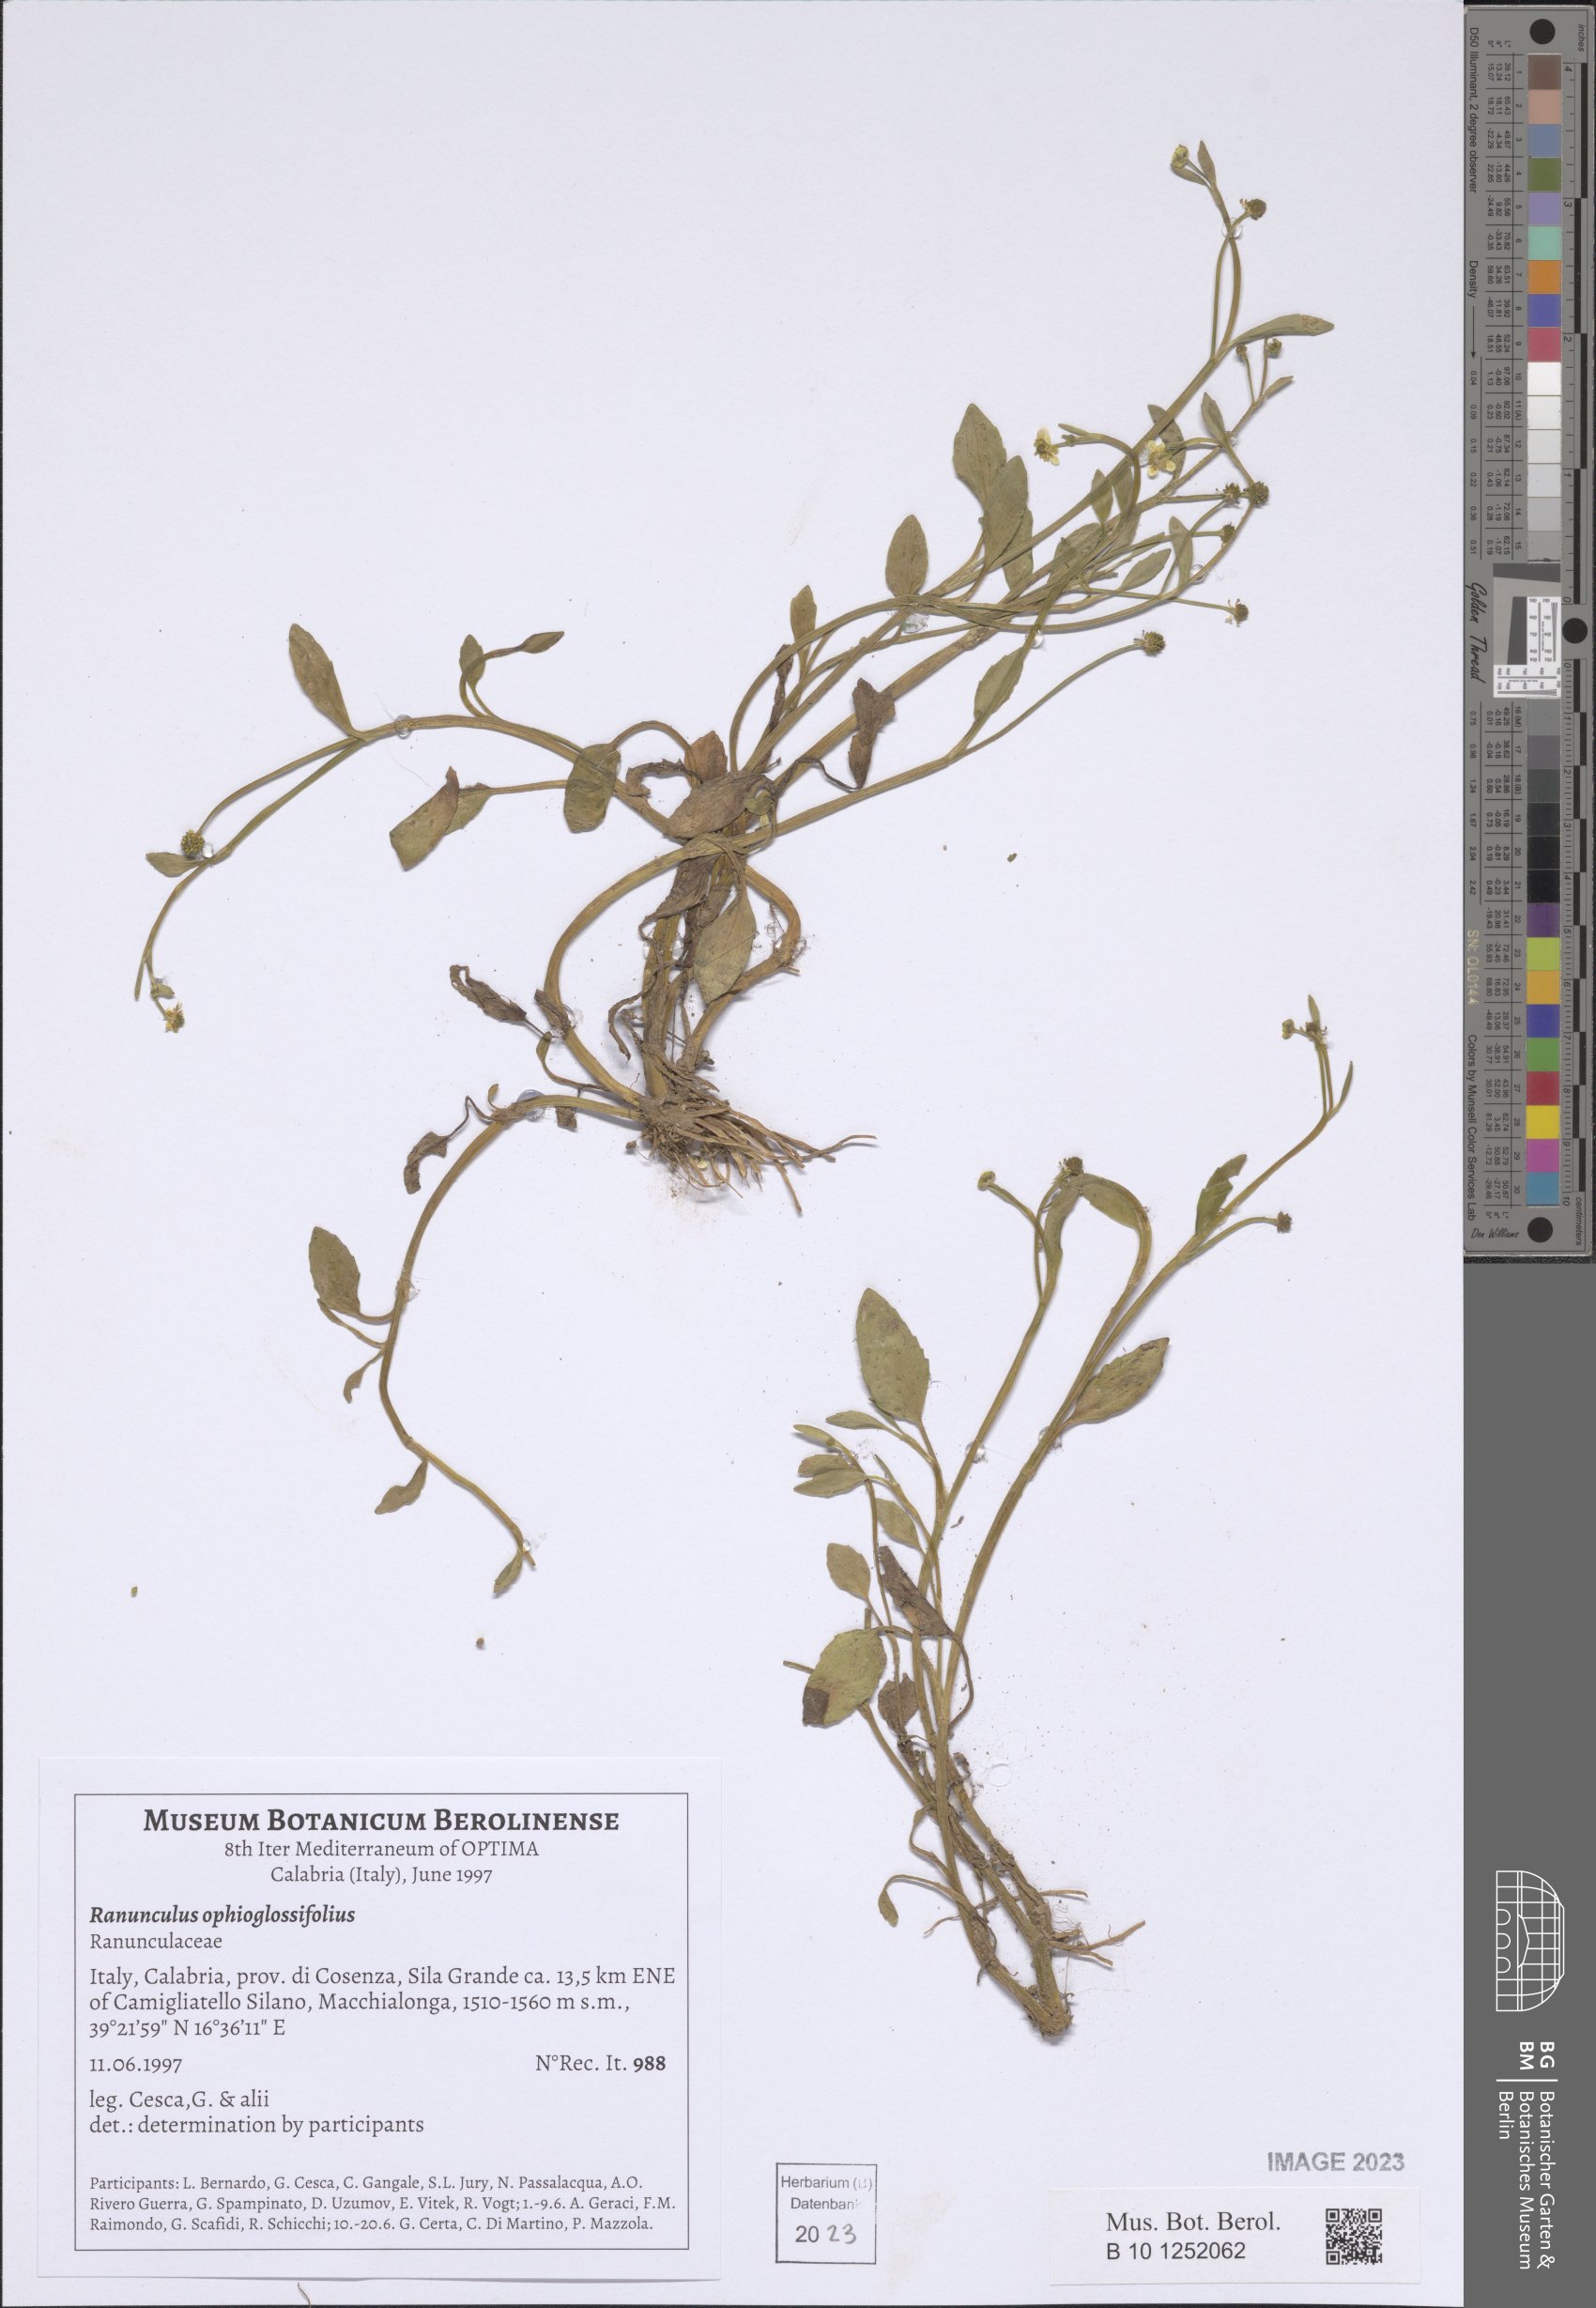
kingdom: Plantae
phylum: Tracheophyta
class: Magnoliopsida
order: Ranunculales
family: Ranunculaceae
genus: Ranunculus
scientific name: Ranunculus ophioglossifolius
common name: Adder's-tongue spearwort
